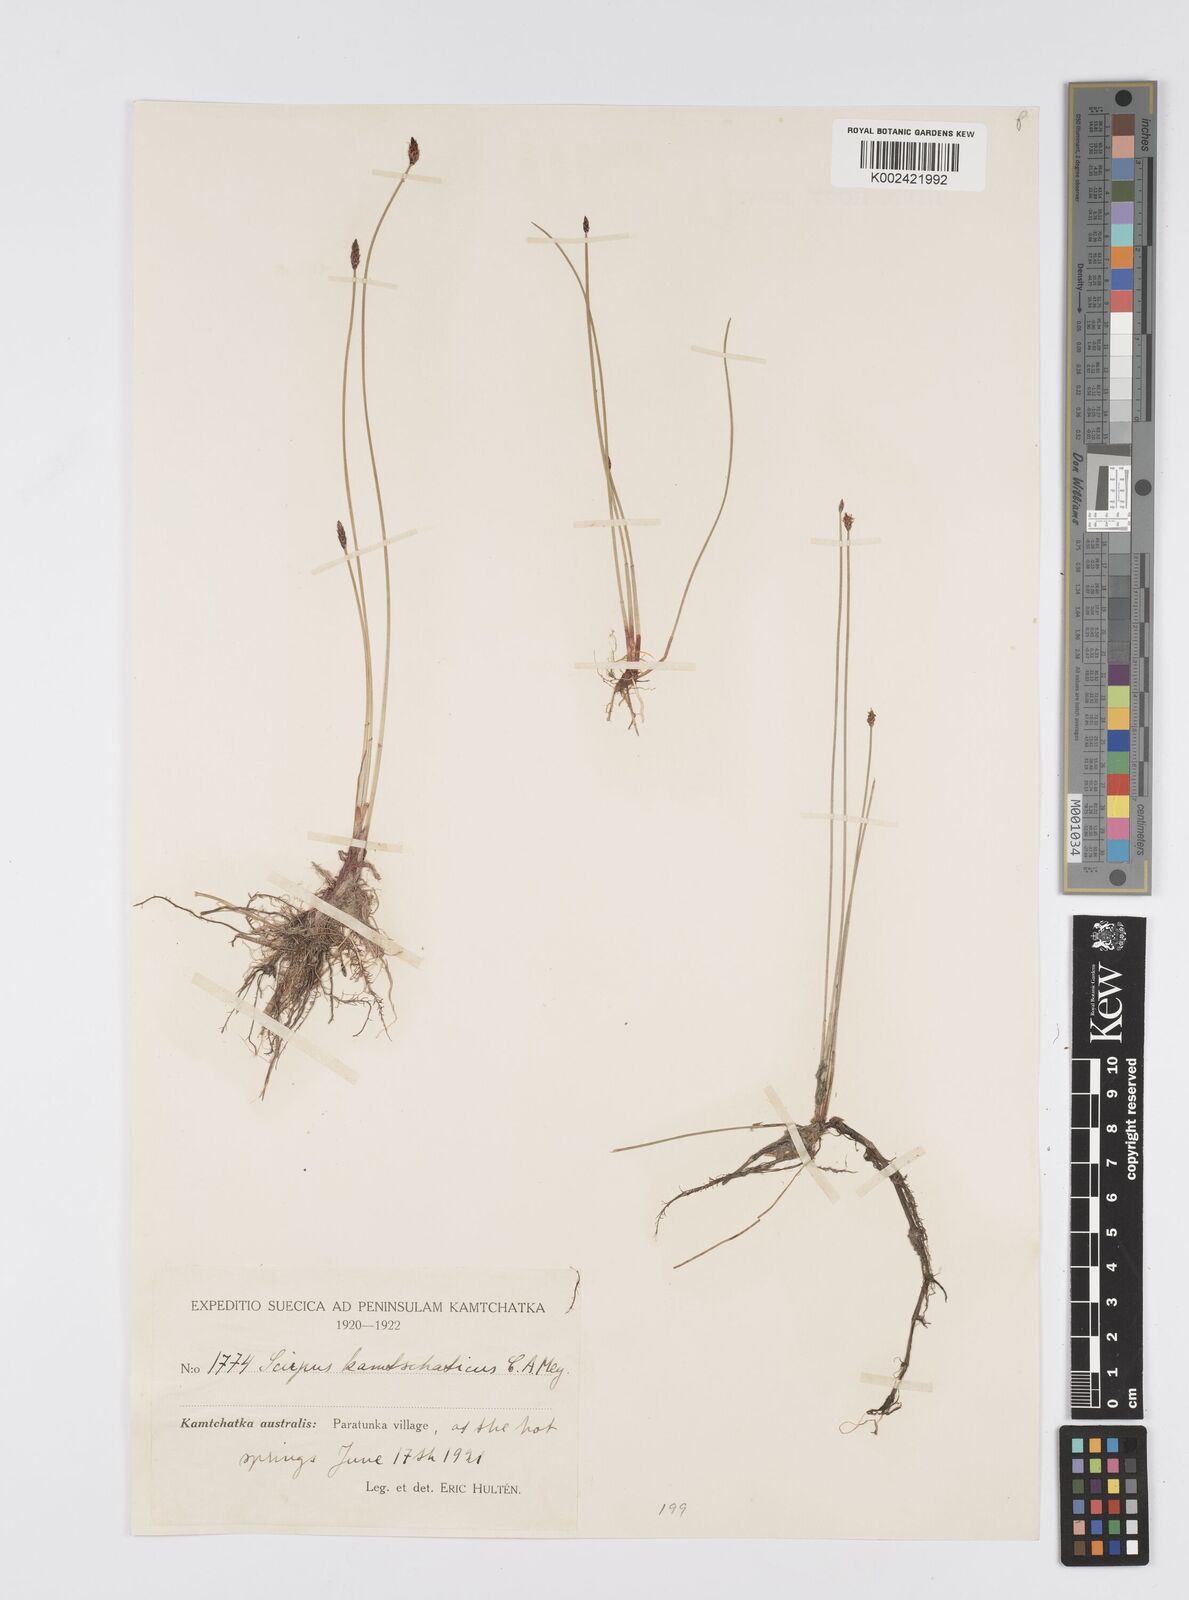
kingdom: Plantae
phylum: Tracheophyta
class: Liliopsida
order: Poales
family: Cyperaceae
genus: Eleocharis
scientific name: Eleocharis kamtschatica
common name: Kamchatka spikerush
